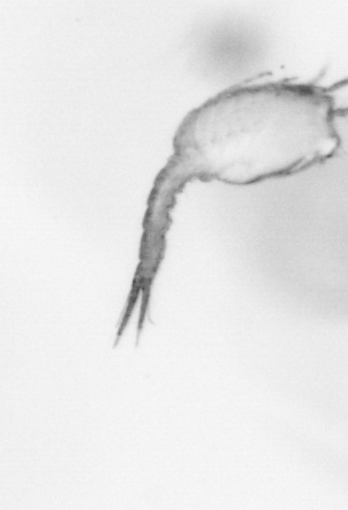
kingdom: Animalia
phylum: Arthropoda
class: Copepoda
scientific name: Copepoda
